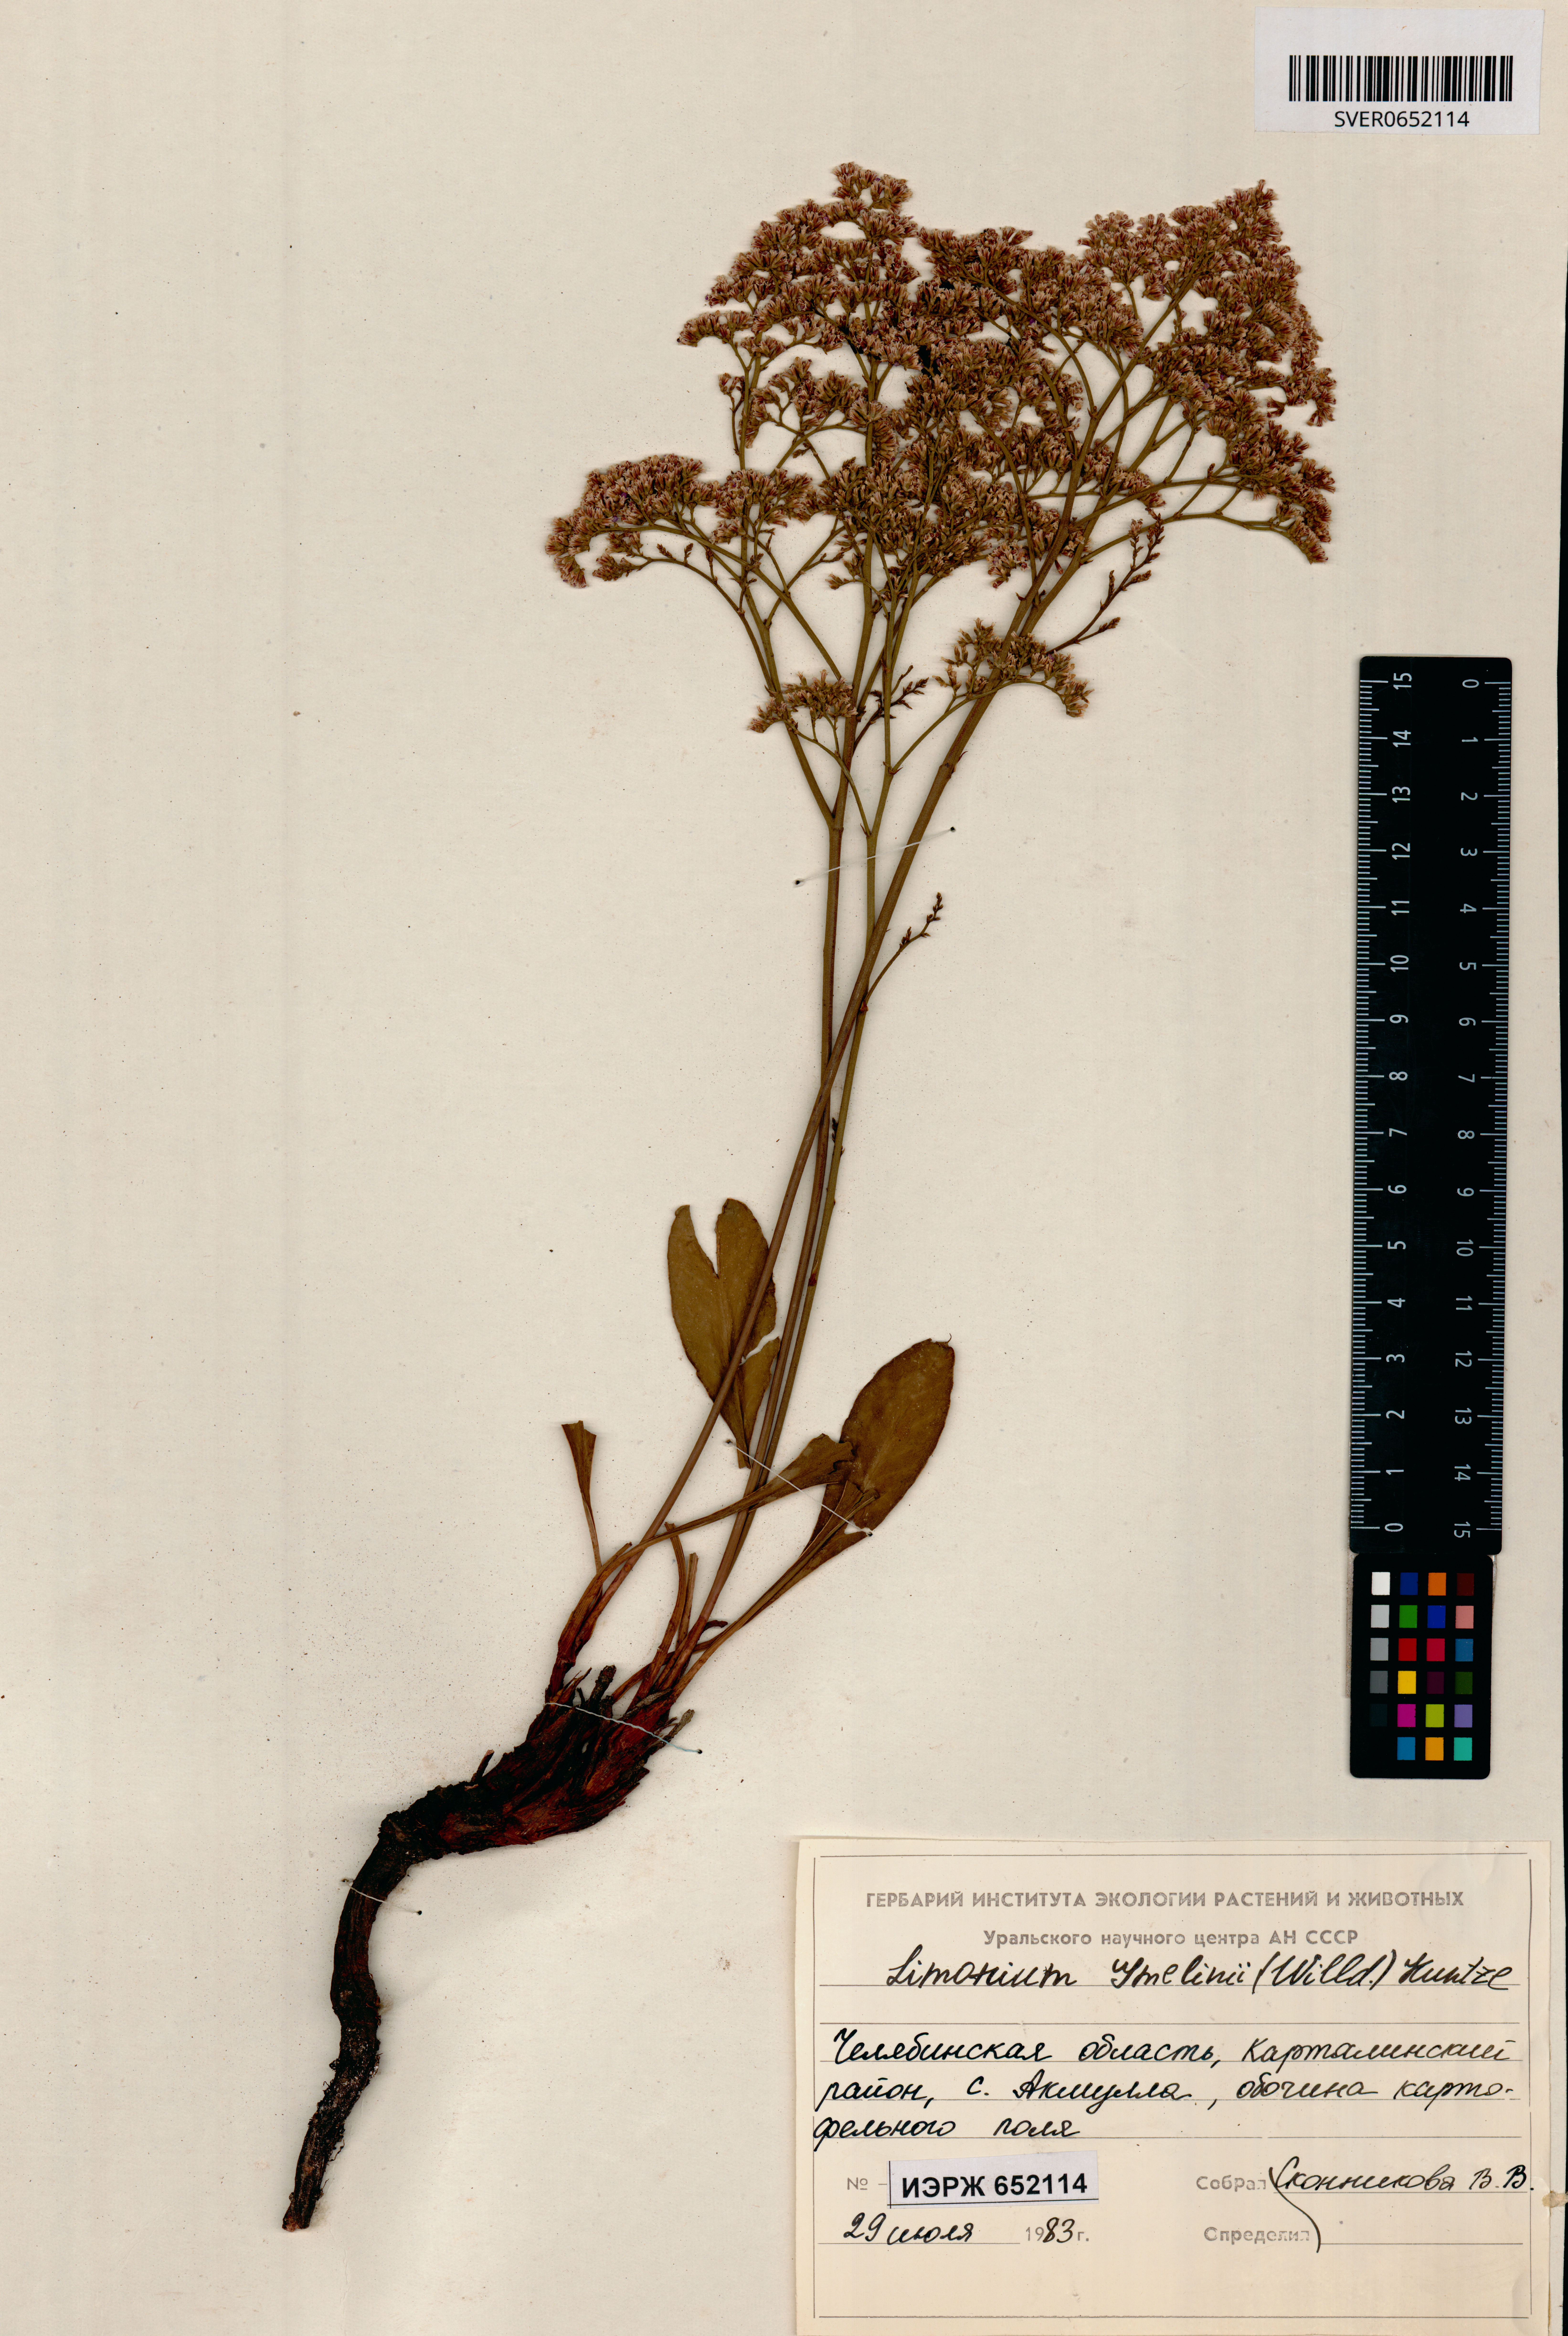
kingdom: Plantae
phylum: Tracheophyta
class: Magnoliopsida
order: Caryophyllales
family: Plumbaginaceae
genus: Limonium
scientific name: Limonium gmelini
